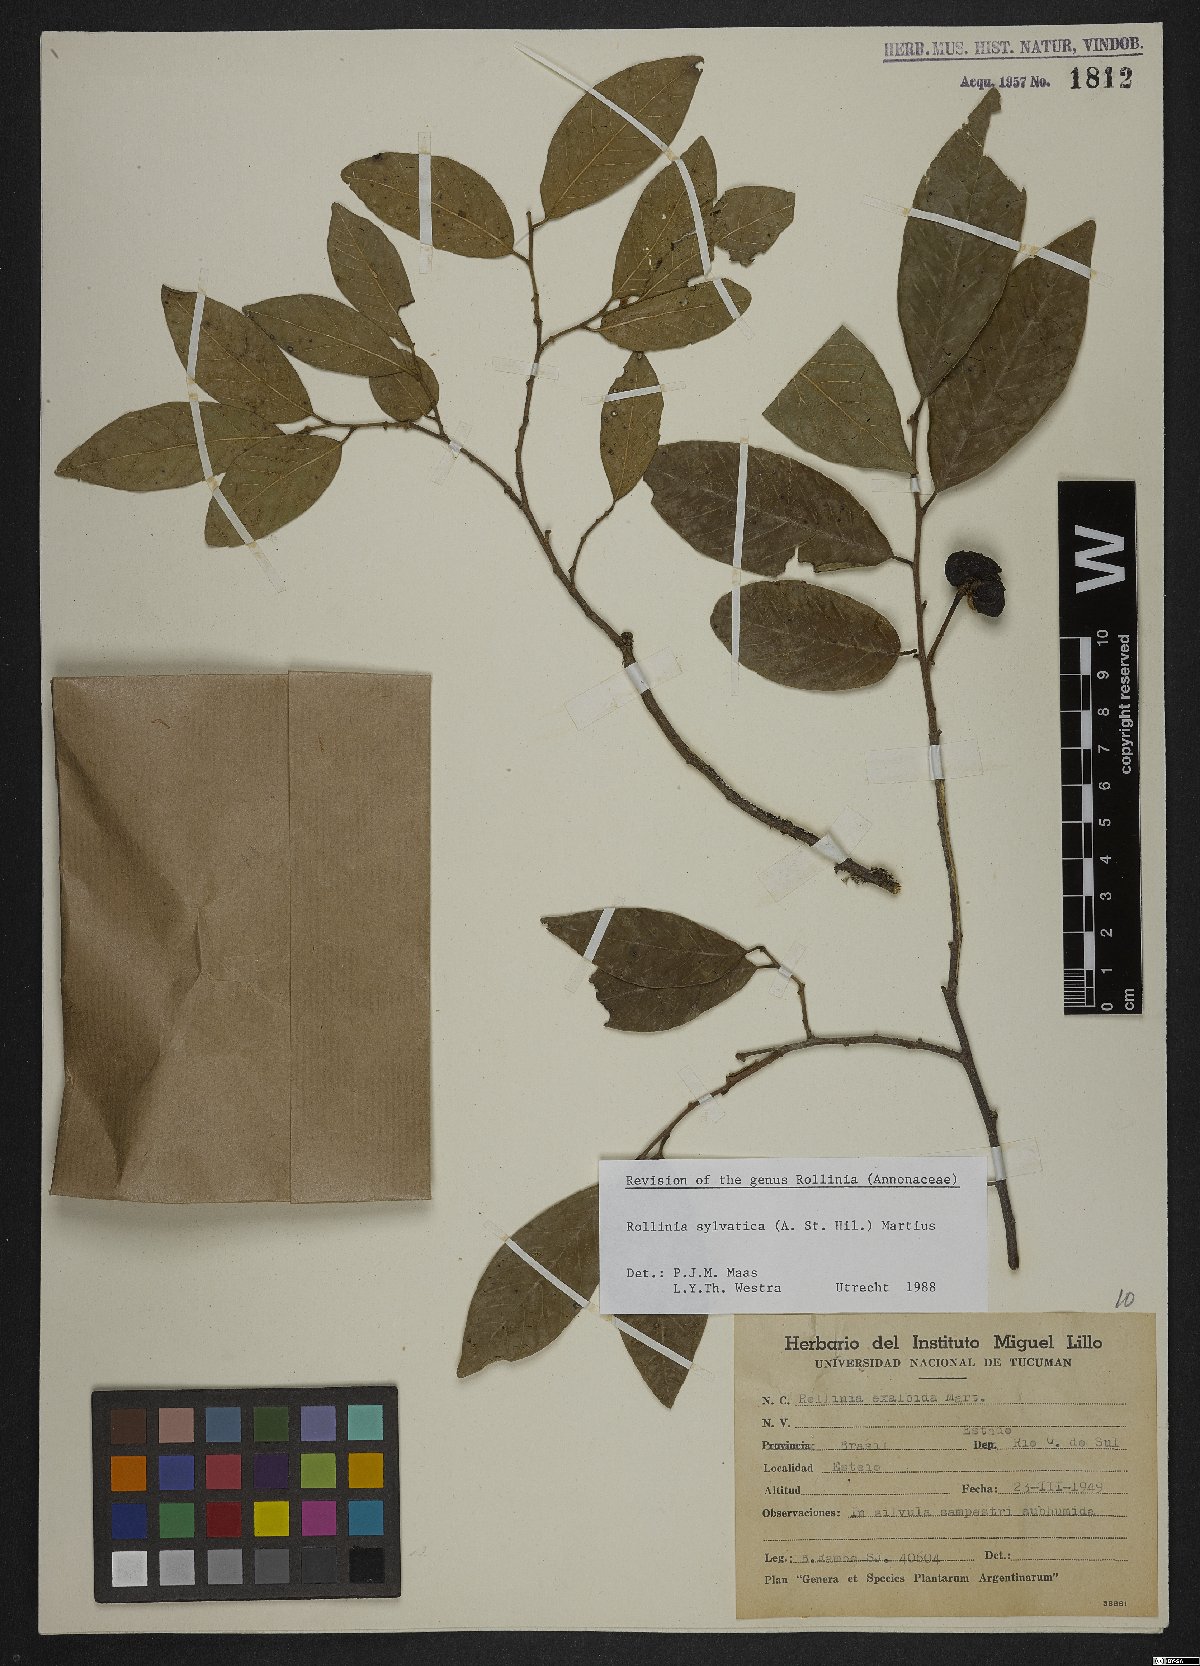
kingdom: Plantae
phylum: Tracheophyta
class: Magnoliopsida
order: Magnoliales
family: Annonaceae
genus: Annona
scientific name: Annona sylvatica
